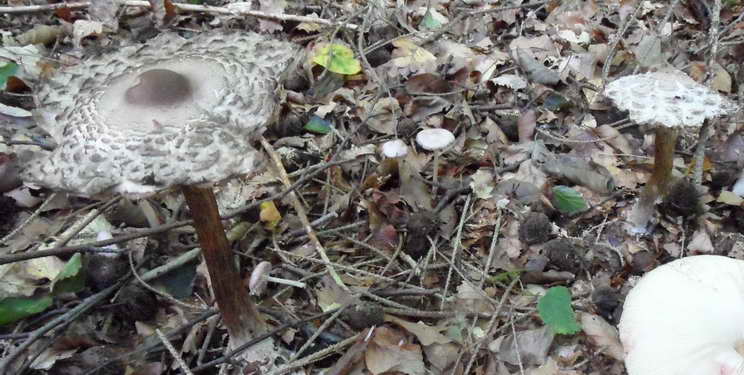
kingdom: Fungi
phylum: Basidiomycota
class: Agaricomycetes
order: Agaricales
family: Agaricaceae
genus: Chlorophyllum
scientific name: Chlorophyllum rhacodes
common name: ægte rabarberhat
